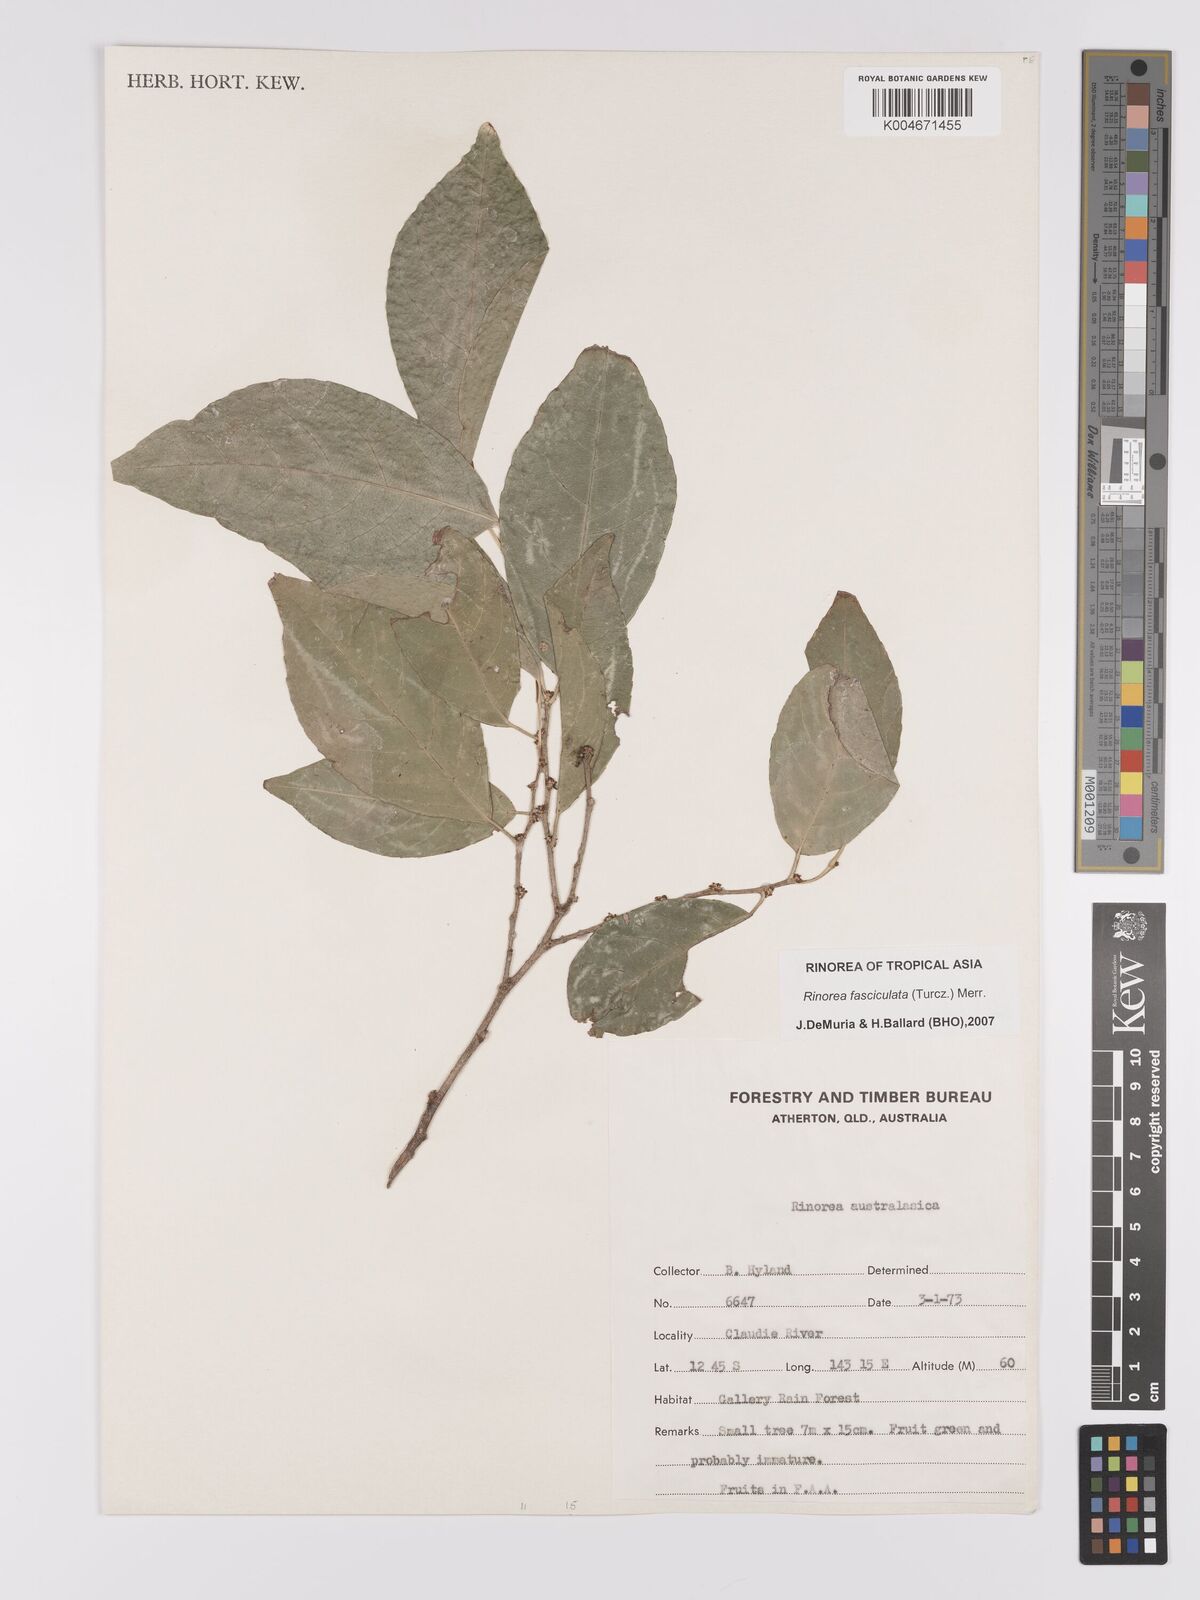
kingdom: Plantae
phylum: Tracheophyta
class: Magnoliopsida
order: Malpighiales
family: Violaceae
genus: Rinorea
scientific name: Rinorea bengalensis
